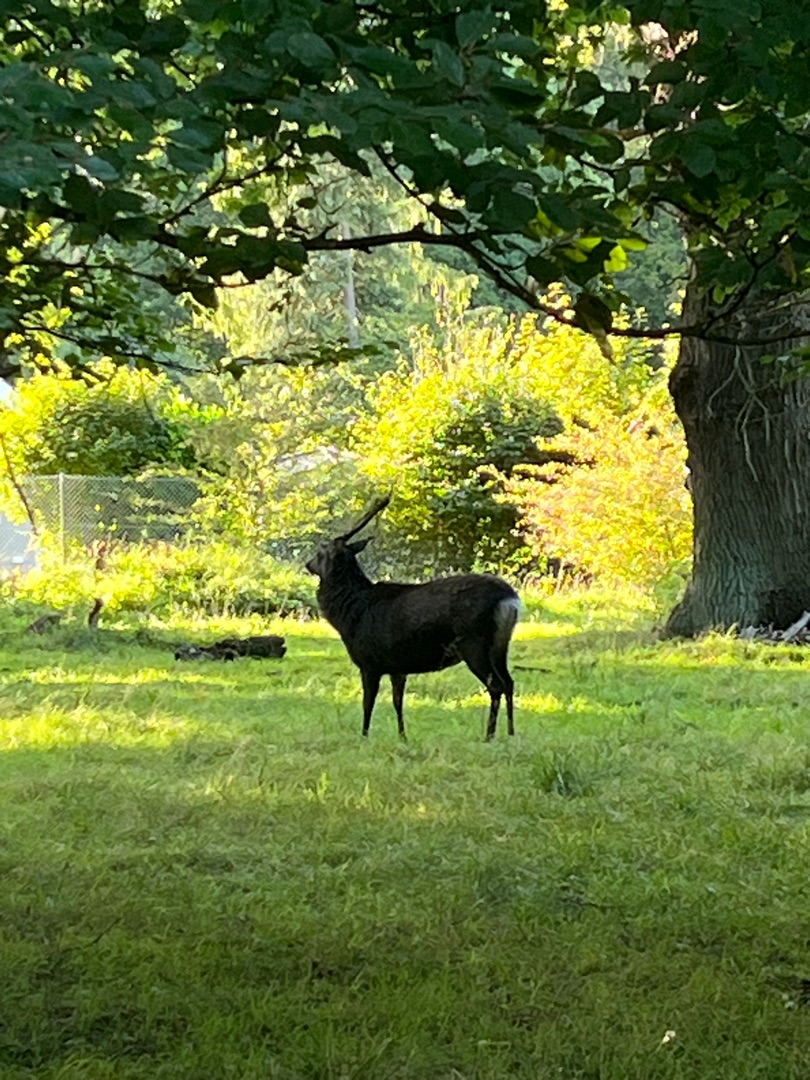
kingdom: Animalia
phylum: Chordata
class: Mammalia
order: Artiodactyla
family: Cervidae
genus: Cervus
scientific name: Cervus nippon
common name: Sika
